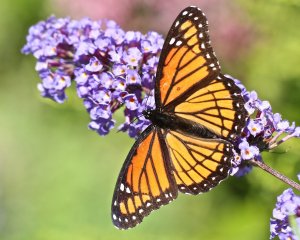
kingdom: Animalia
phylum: Arthropoda
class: Insecta
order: Lepidoptera
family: Nymphalidae
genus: Limenitis
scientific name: Limenitis archippus
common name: Viceroy
